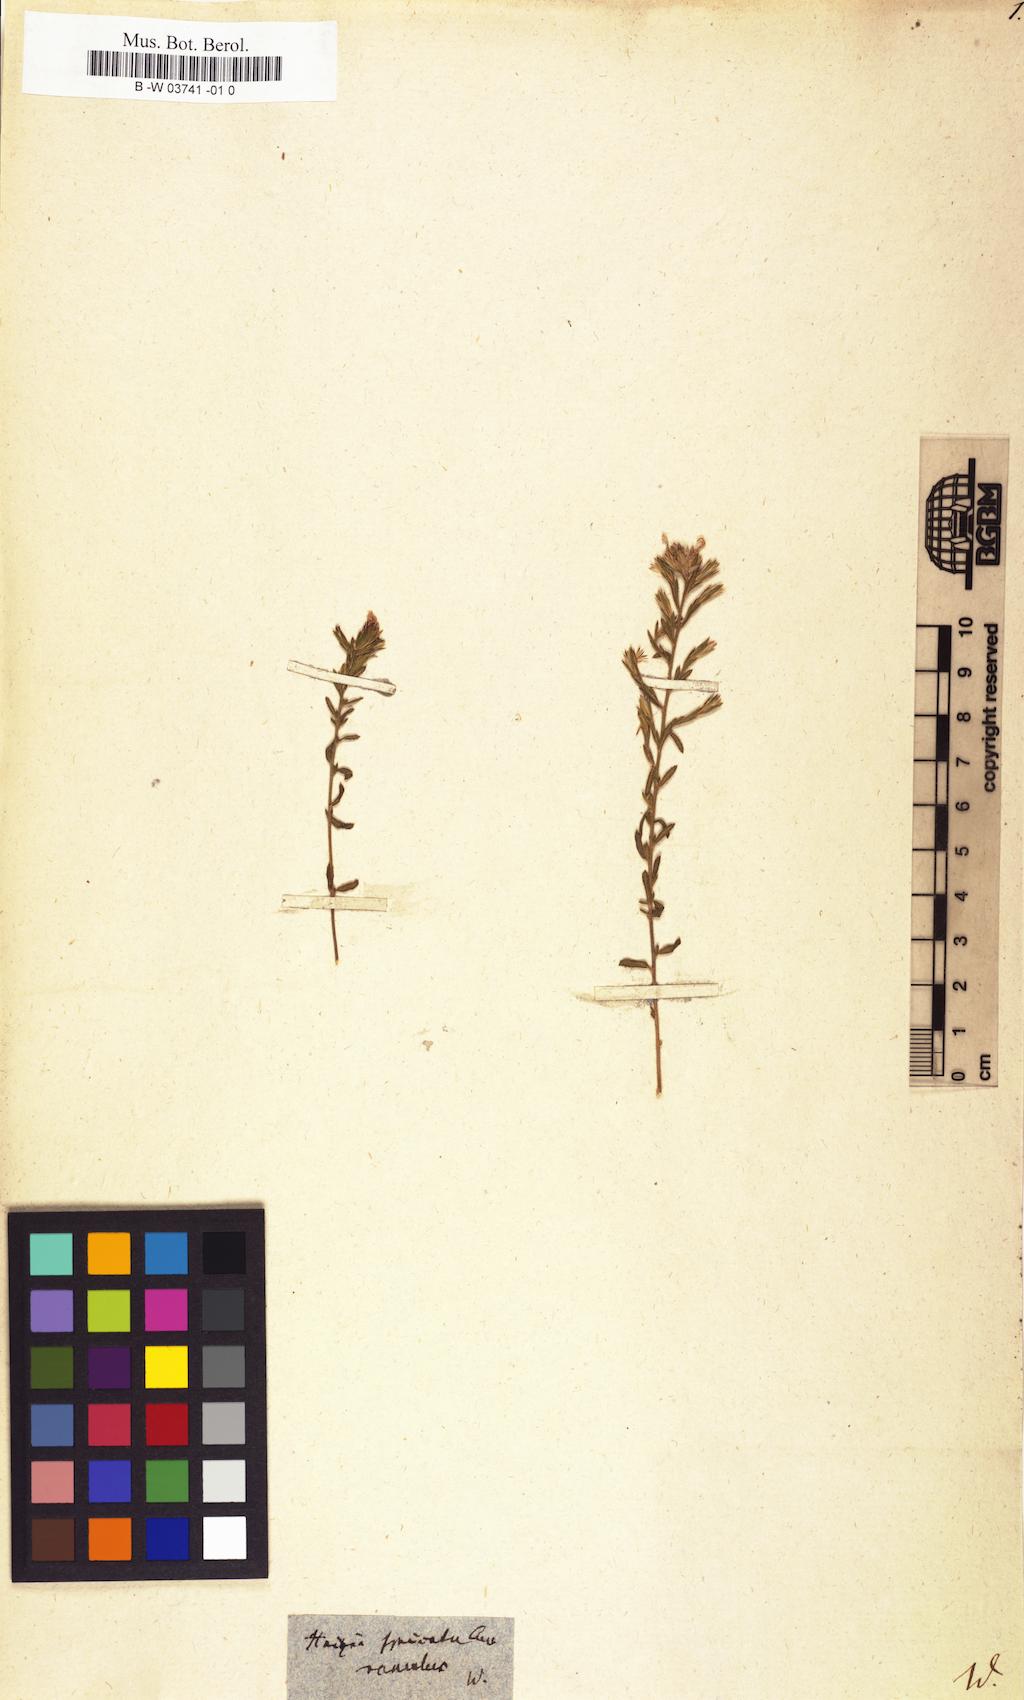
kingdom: Plantae
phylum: Tracheophyta
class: Magnoliopsida
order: Ericales
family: Polemoniaceae
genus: Loeselia
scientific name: Loeselia glandulosa
